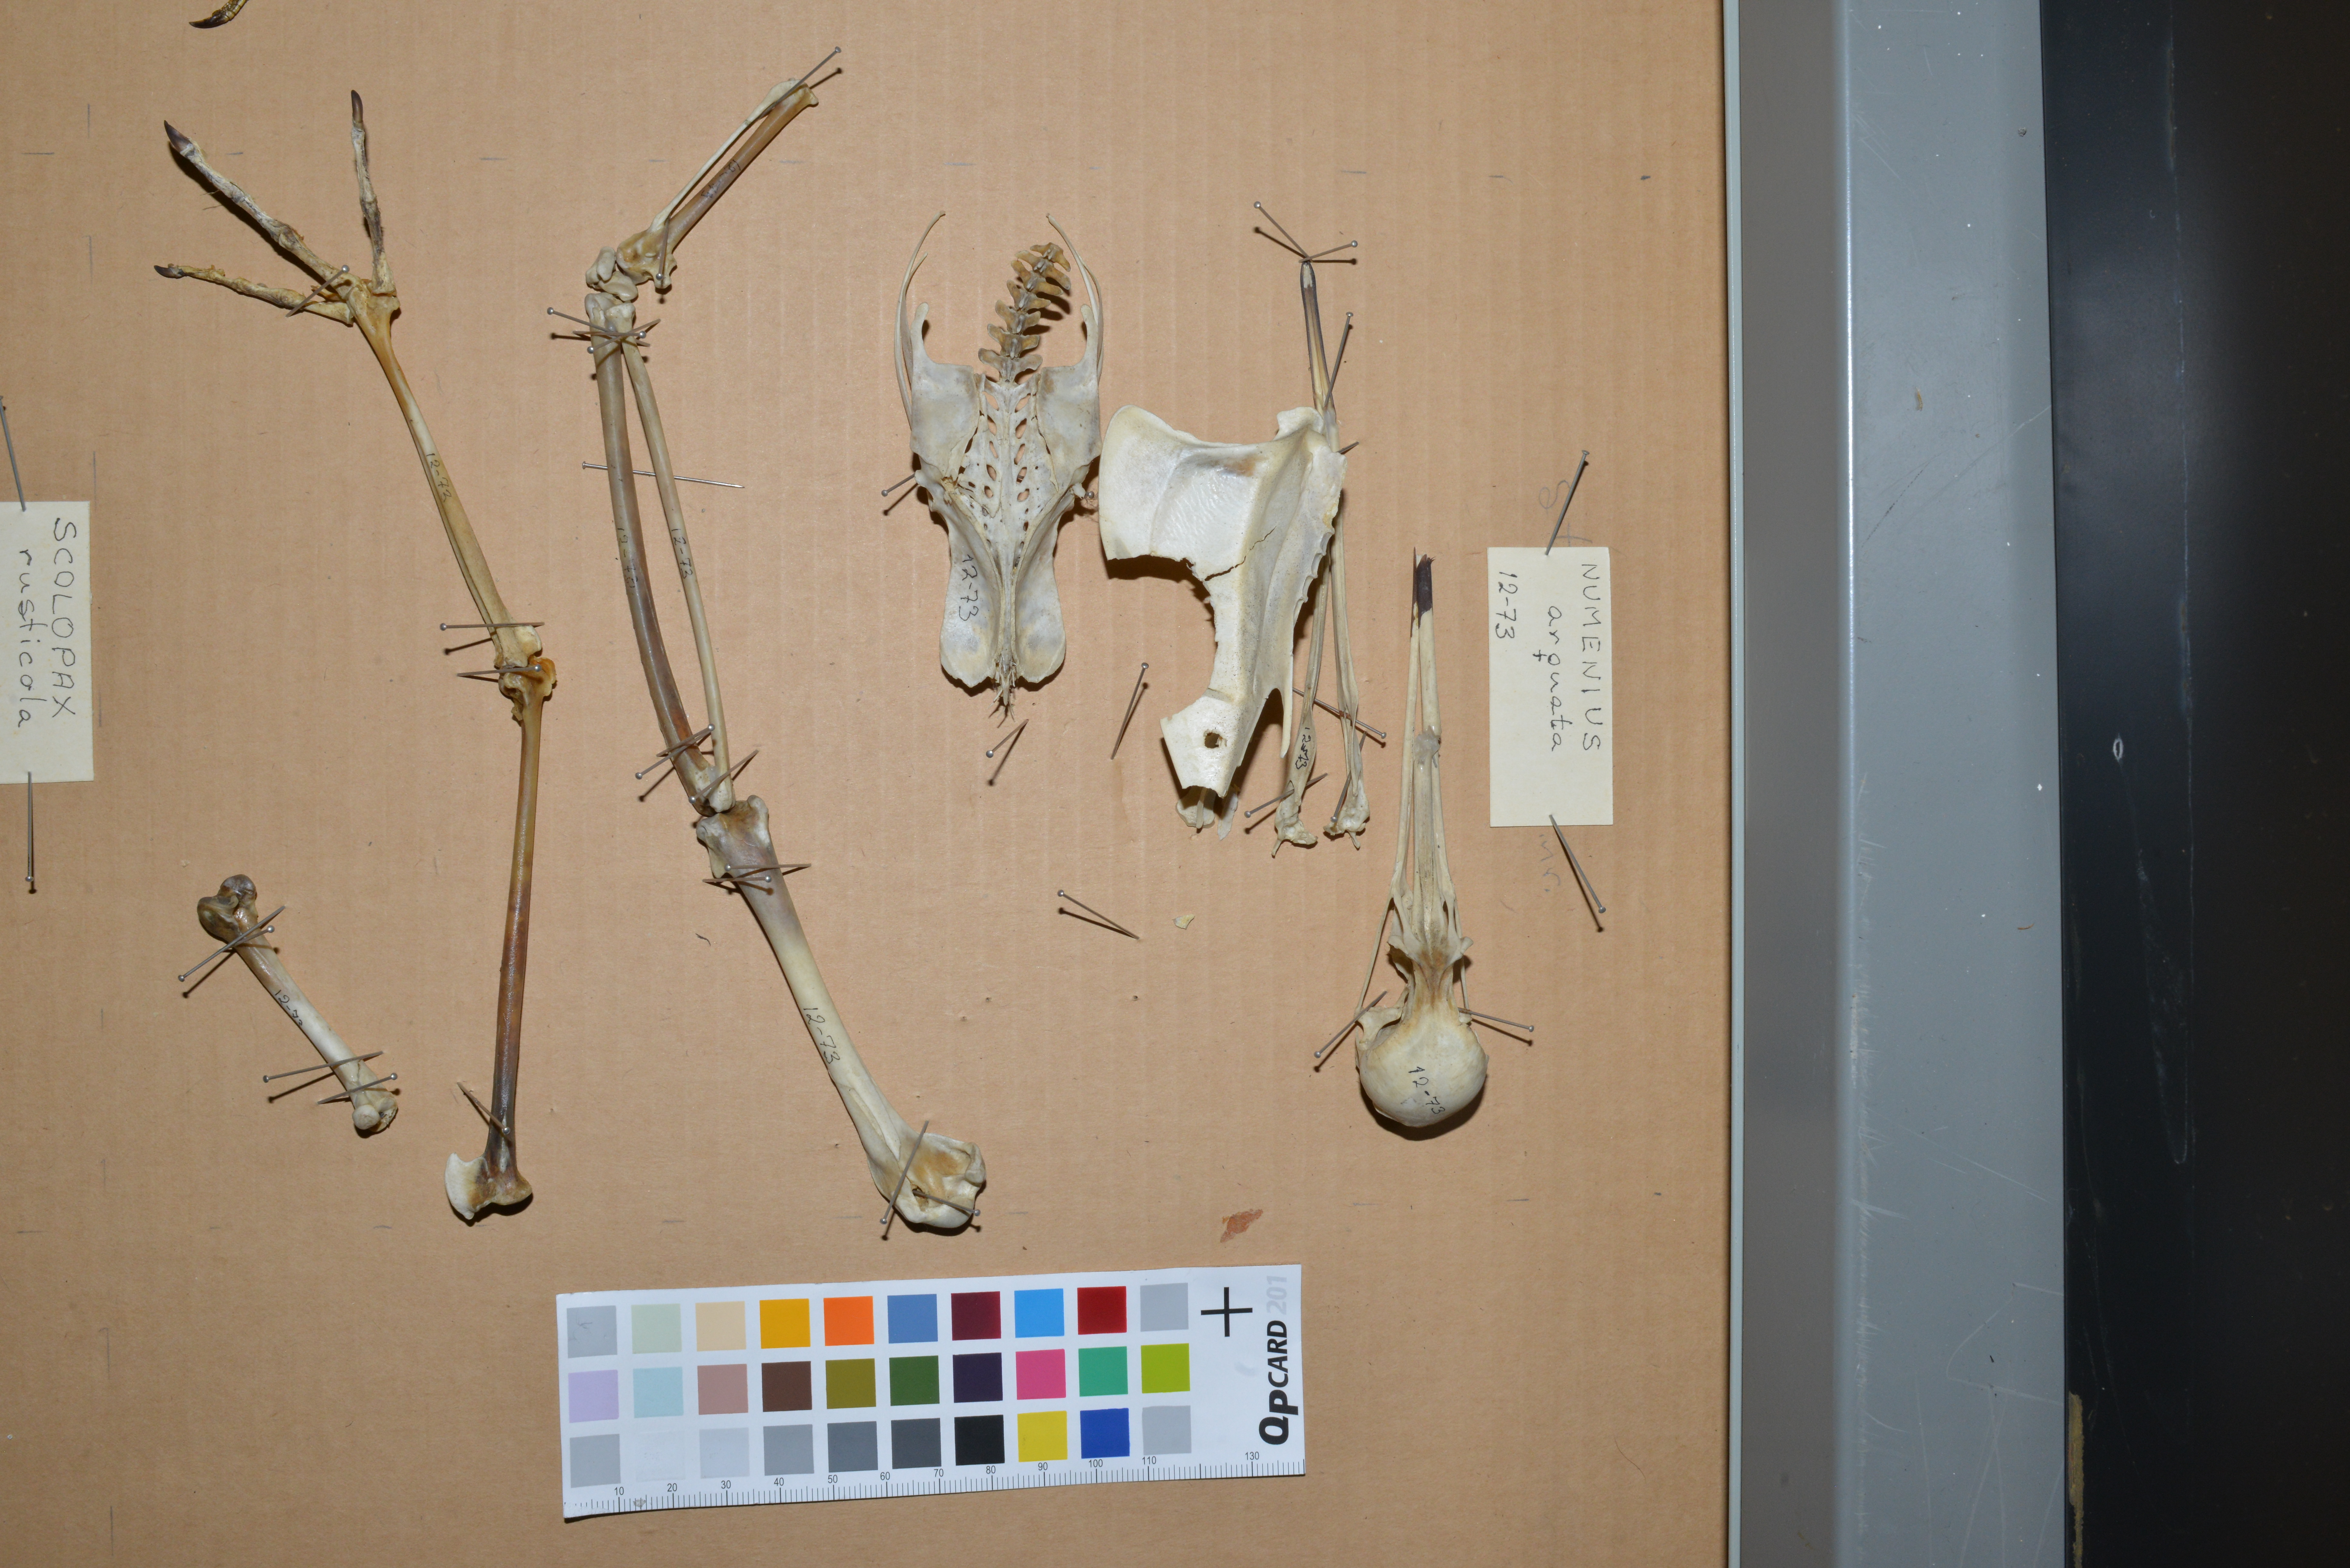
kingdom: Animalia
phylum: Chordata
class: Aves
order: Charadriiformes
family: Scolopacidae
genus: Numenius
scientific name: Numenius arquata
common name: Eurasian curlew
